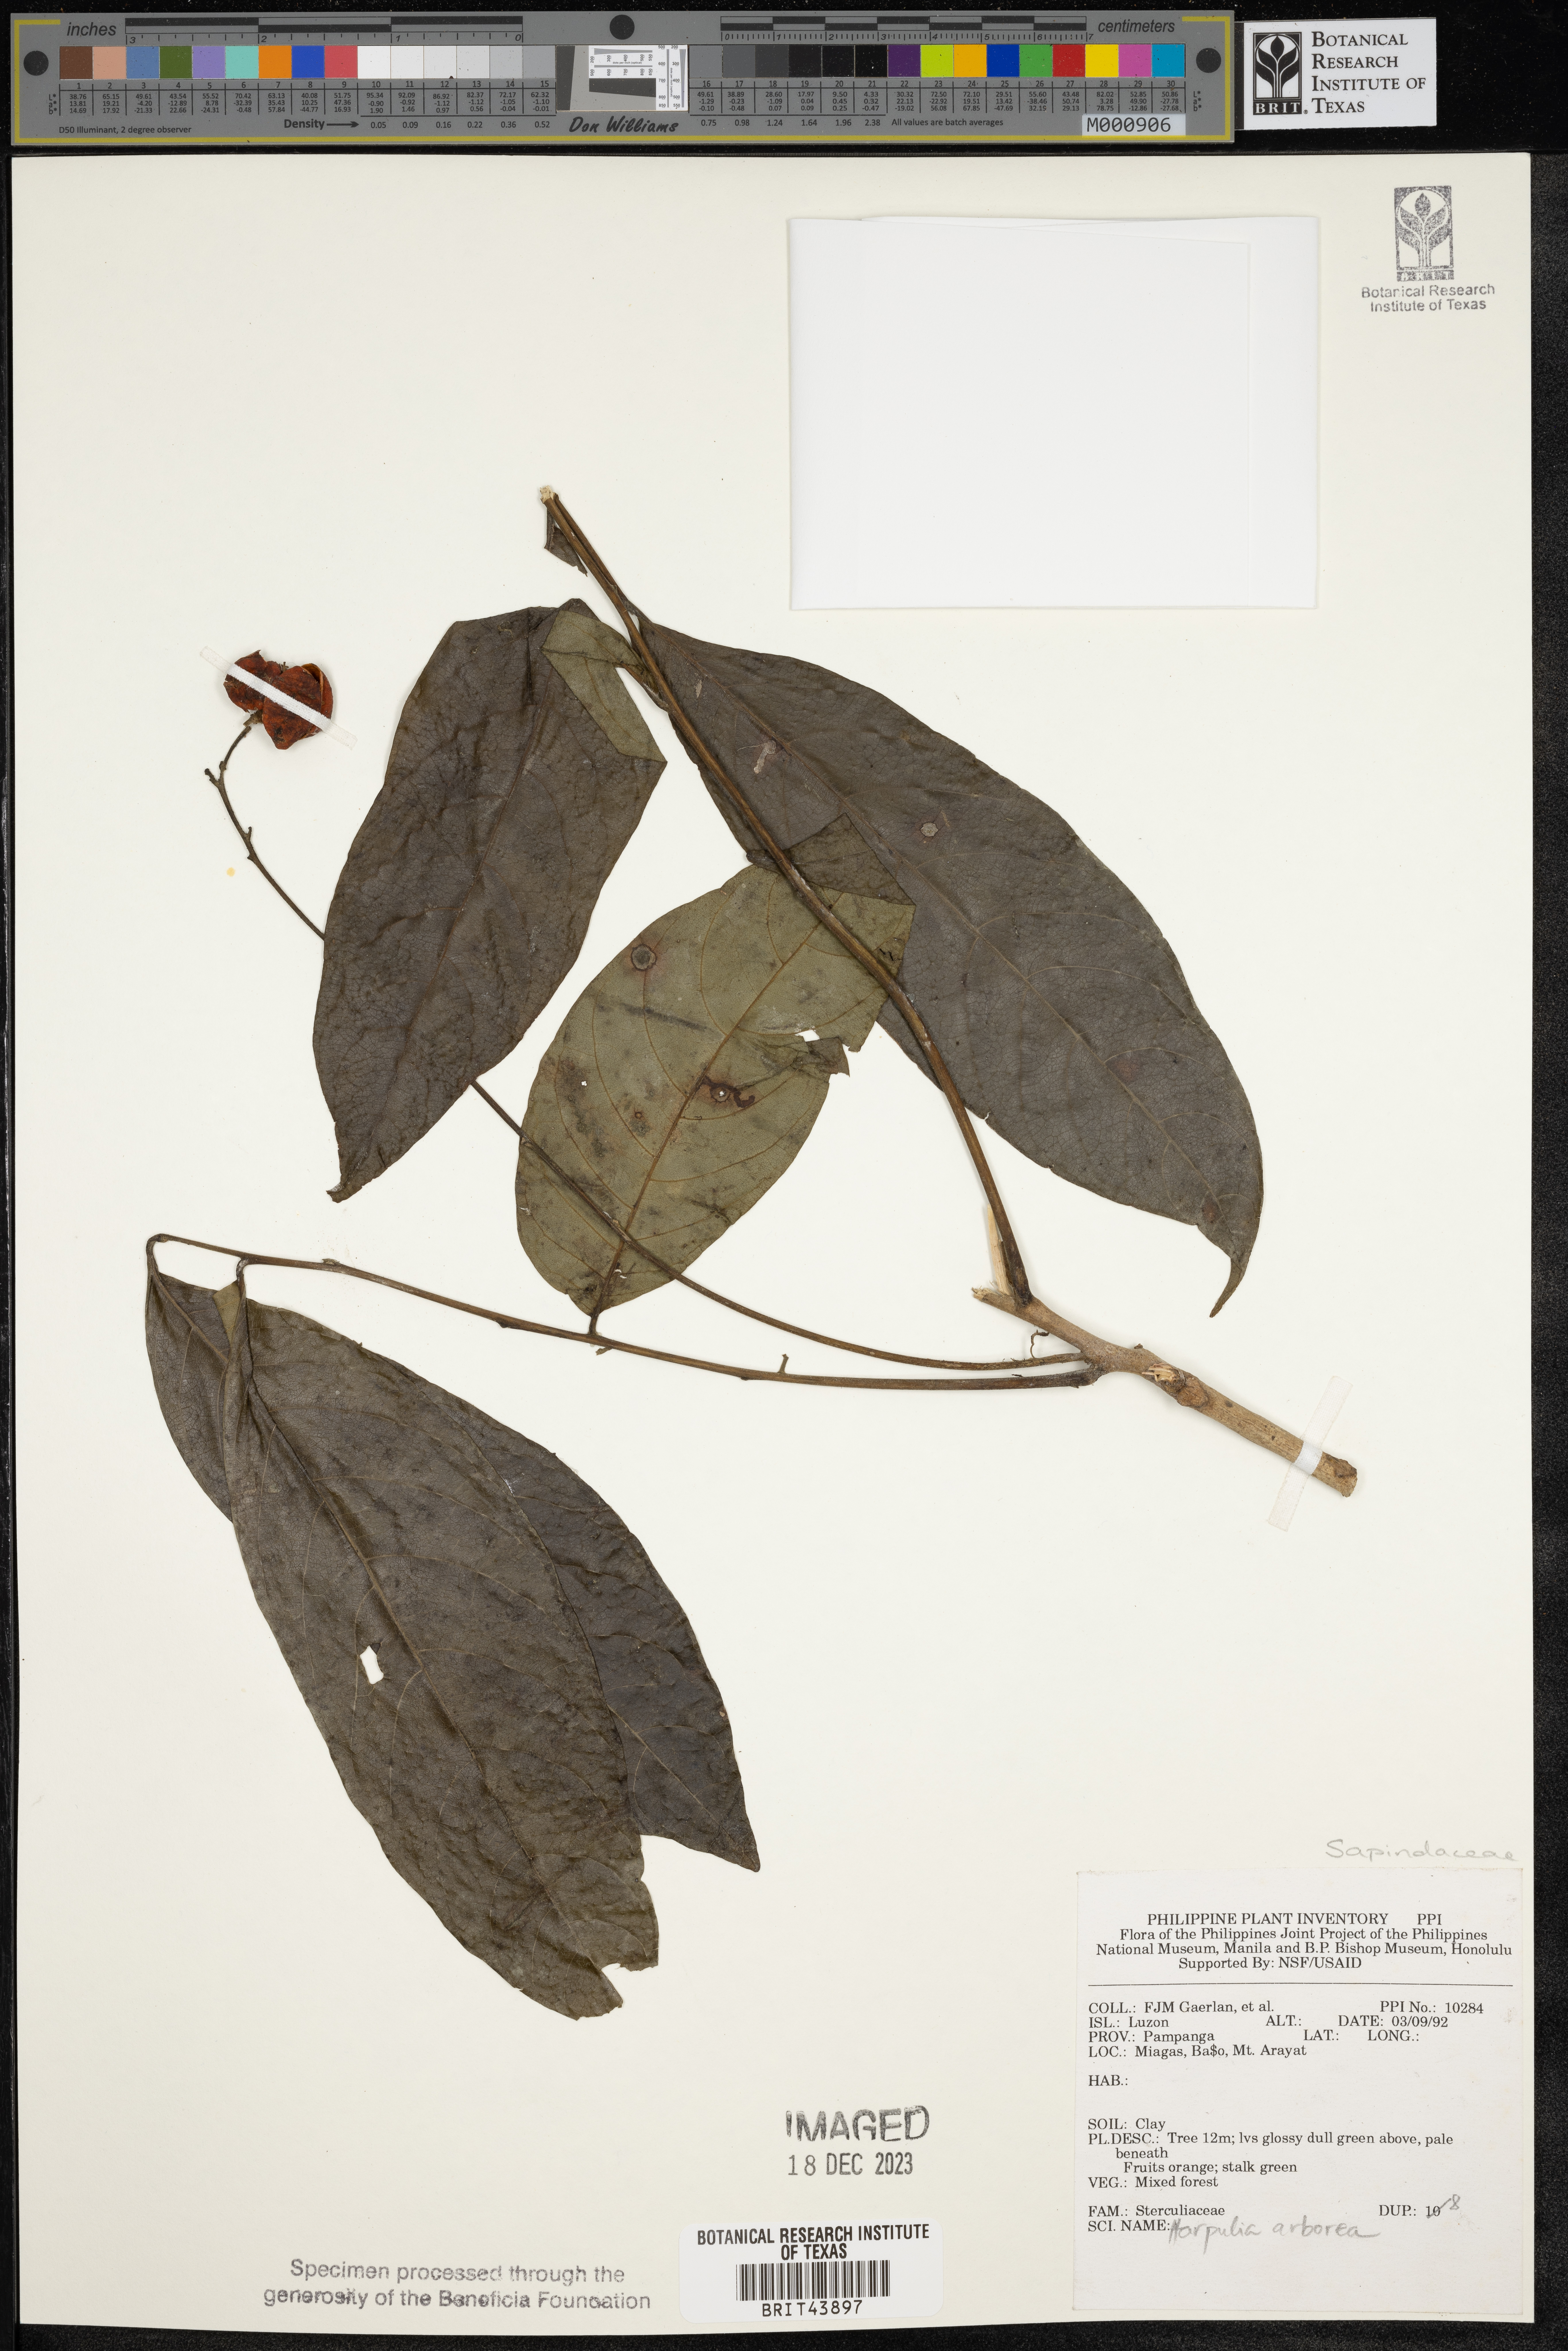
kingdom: Plantae
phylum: Tracheophyta
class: Magnoliopsida
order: Sapindales
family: Sapindaceae
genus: Harpullia
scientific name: Harpullia arborea
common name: Tulip-wood tree
